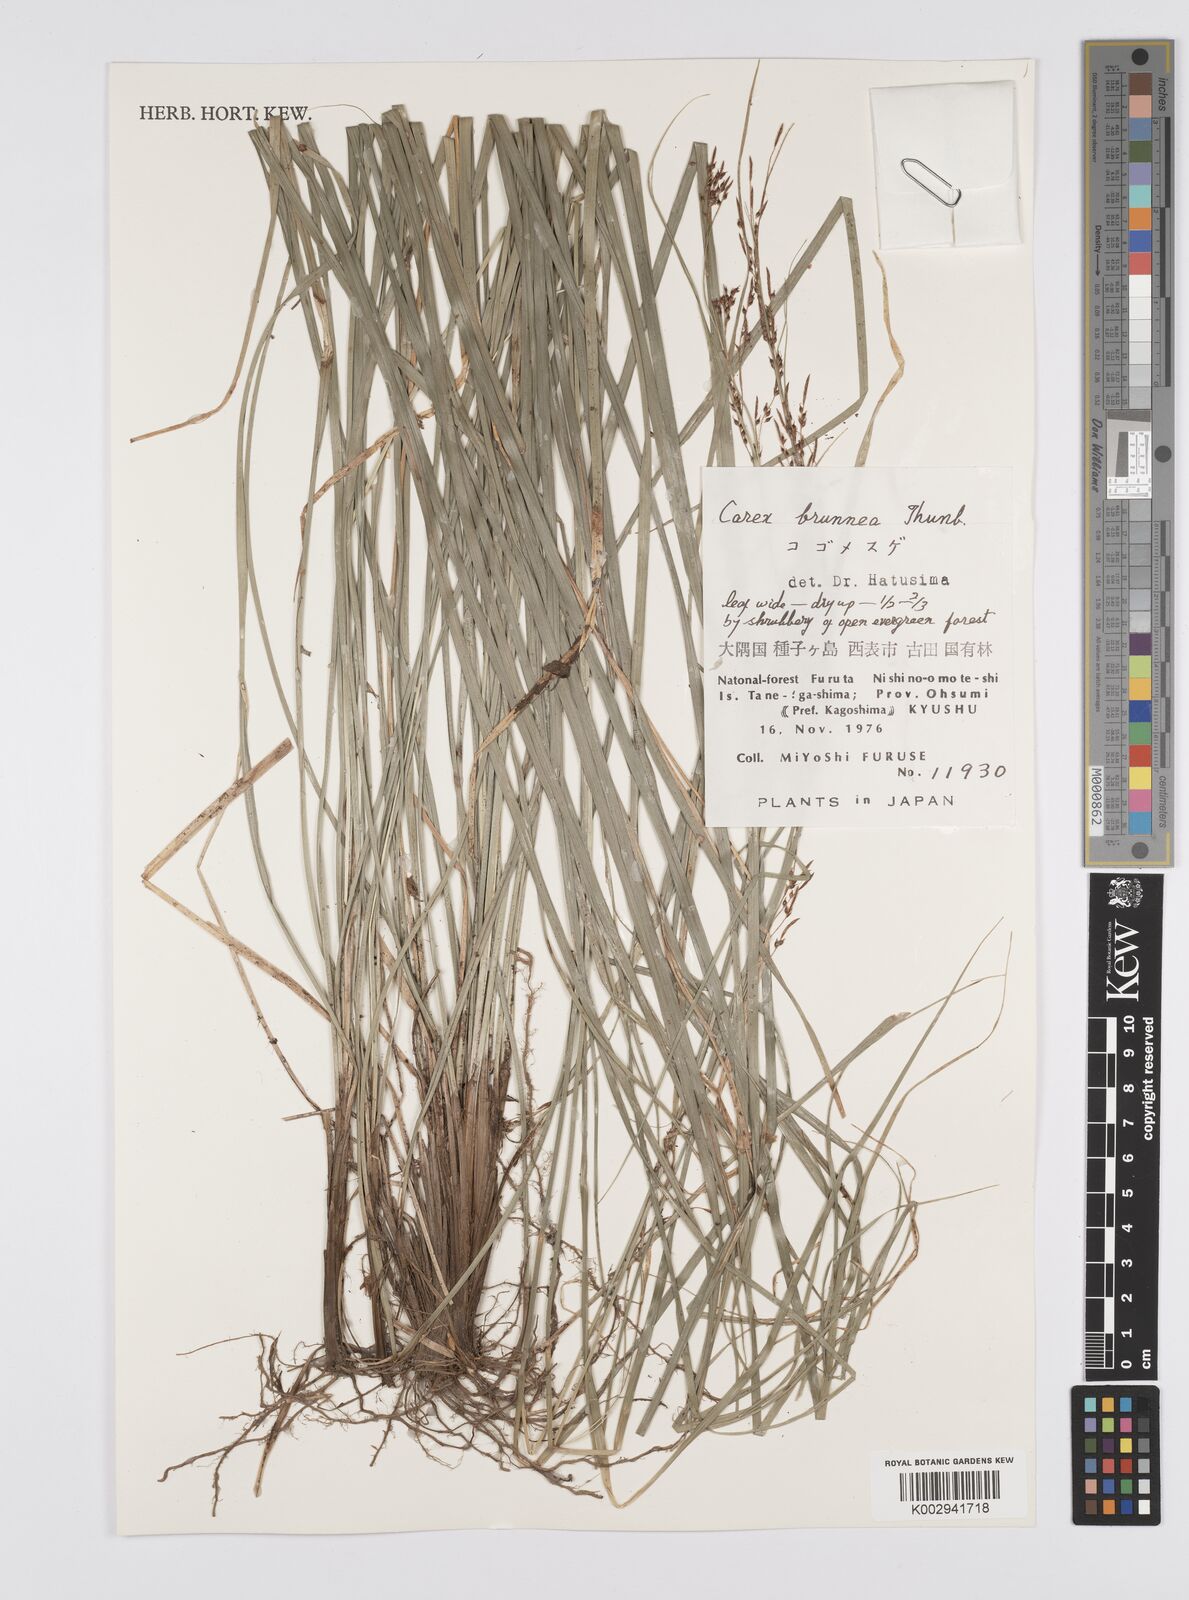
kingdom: Plantae
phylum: Tracheophyta
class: Liliopsida
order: Poales
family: Cyperaceae
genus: Carex
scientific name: Carex brunnea
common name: Greater brown sedge
